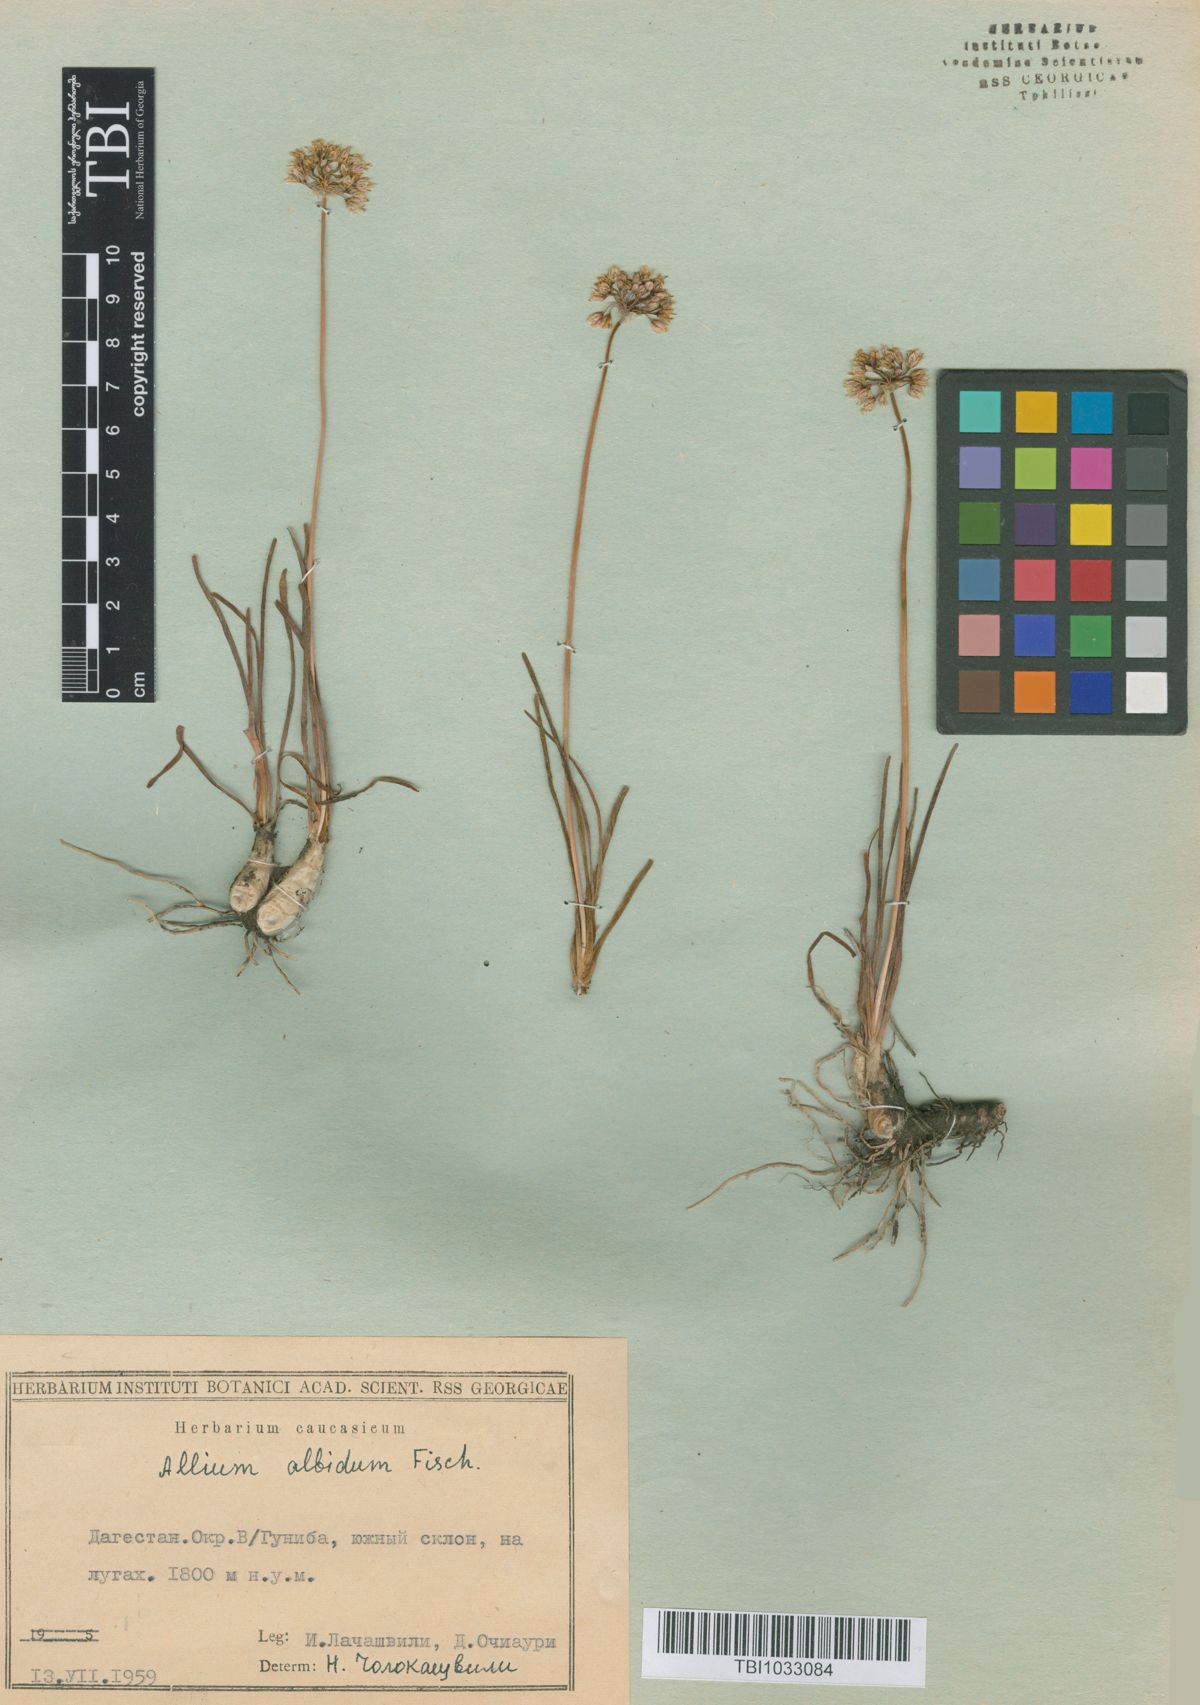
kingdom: Plantae
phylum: Tracheophyta
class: Liliopsida
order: Asparagales
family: Amaryllidaceae
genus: Allium
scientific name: Allium denudatum
